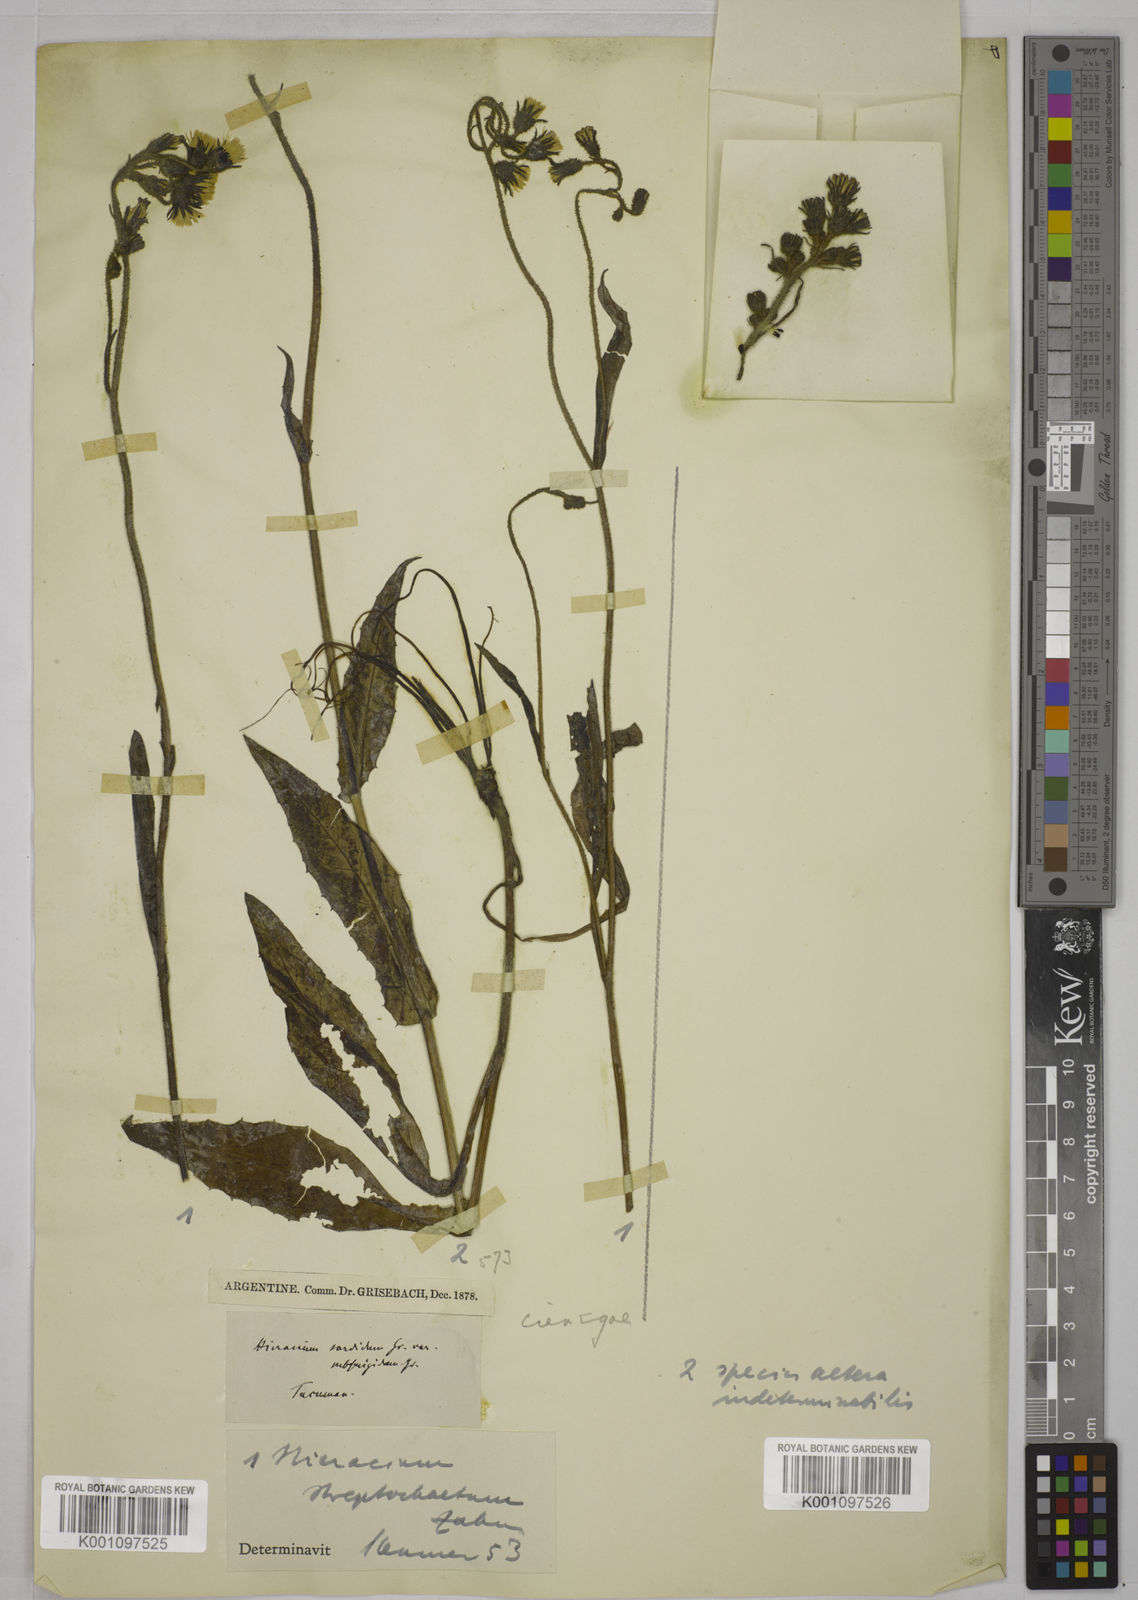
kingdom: Plantae
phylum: Tracheophyta
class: Magnoliopsida
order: Asterales
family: Asteraceae
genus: Hieracium
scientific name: Hieracium streptochaetum
